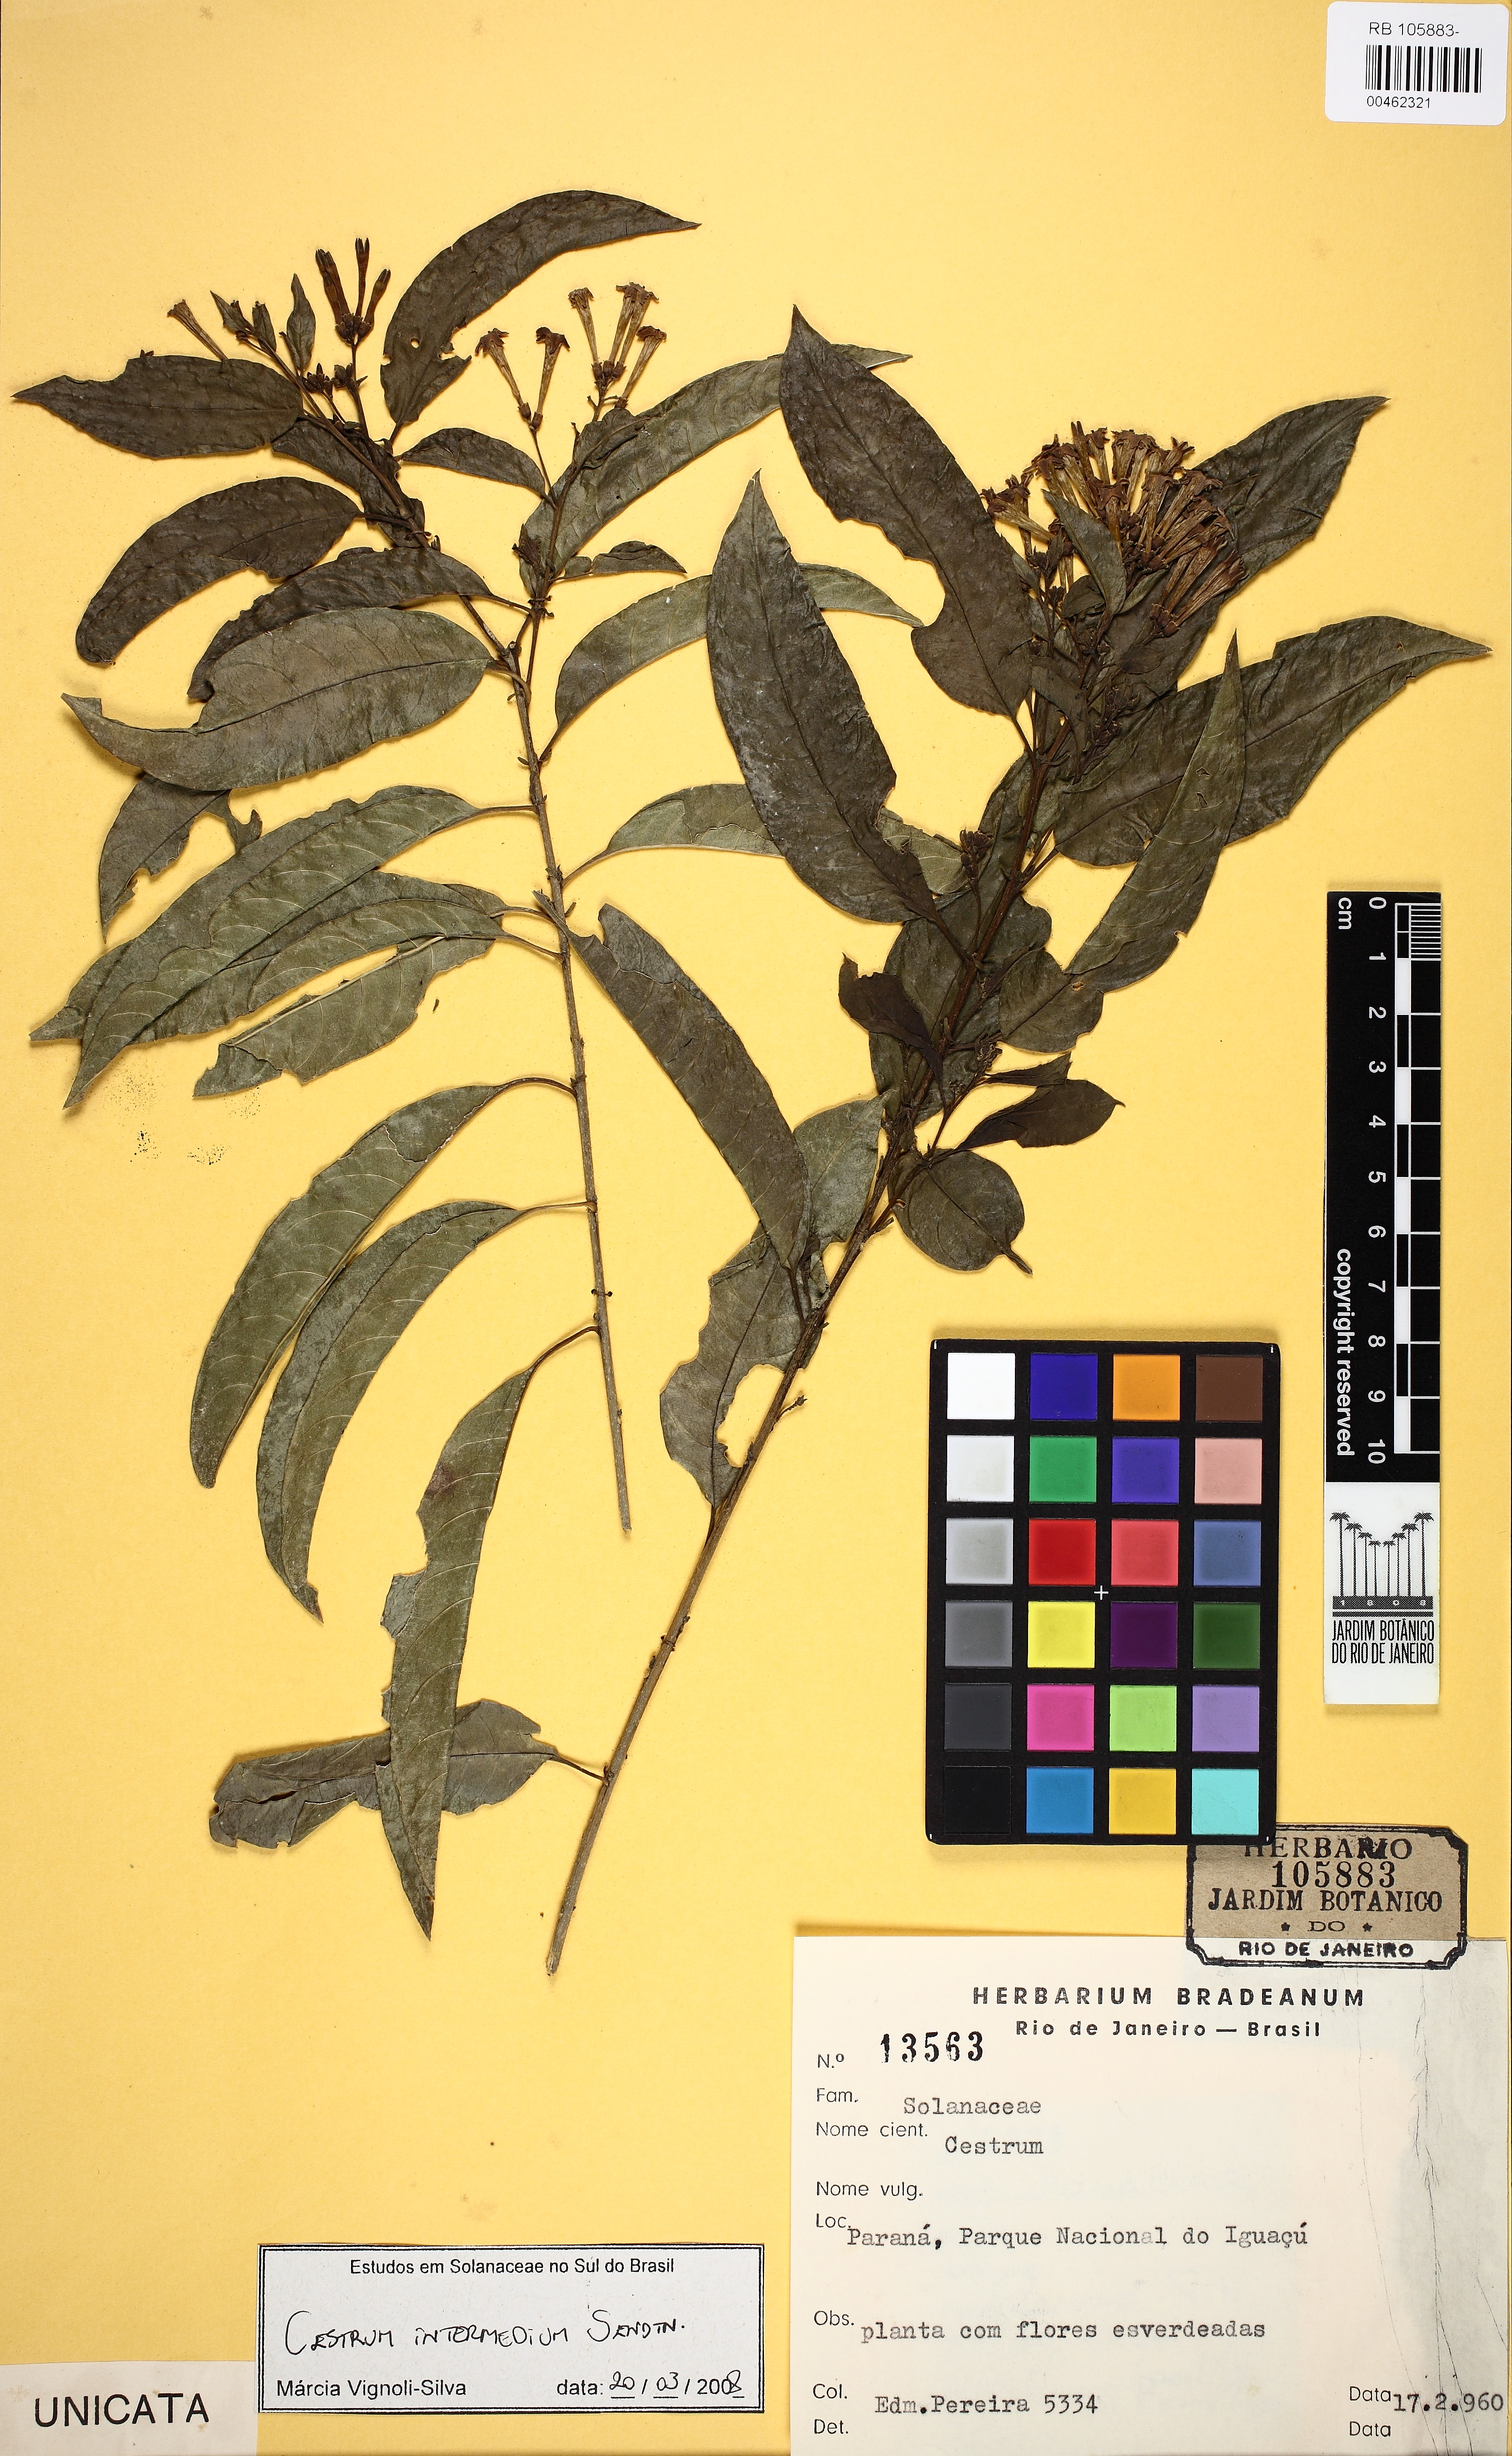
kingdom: Plantae
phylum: Tracheophyta
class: Magnoliopsida
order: Solanales
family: Solanaceae
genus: Cestrum
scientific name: Cestrum intermedium
